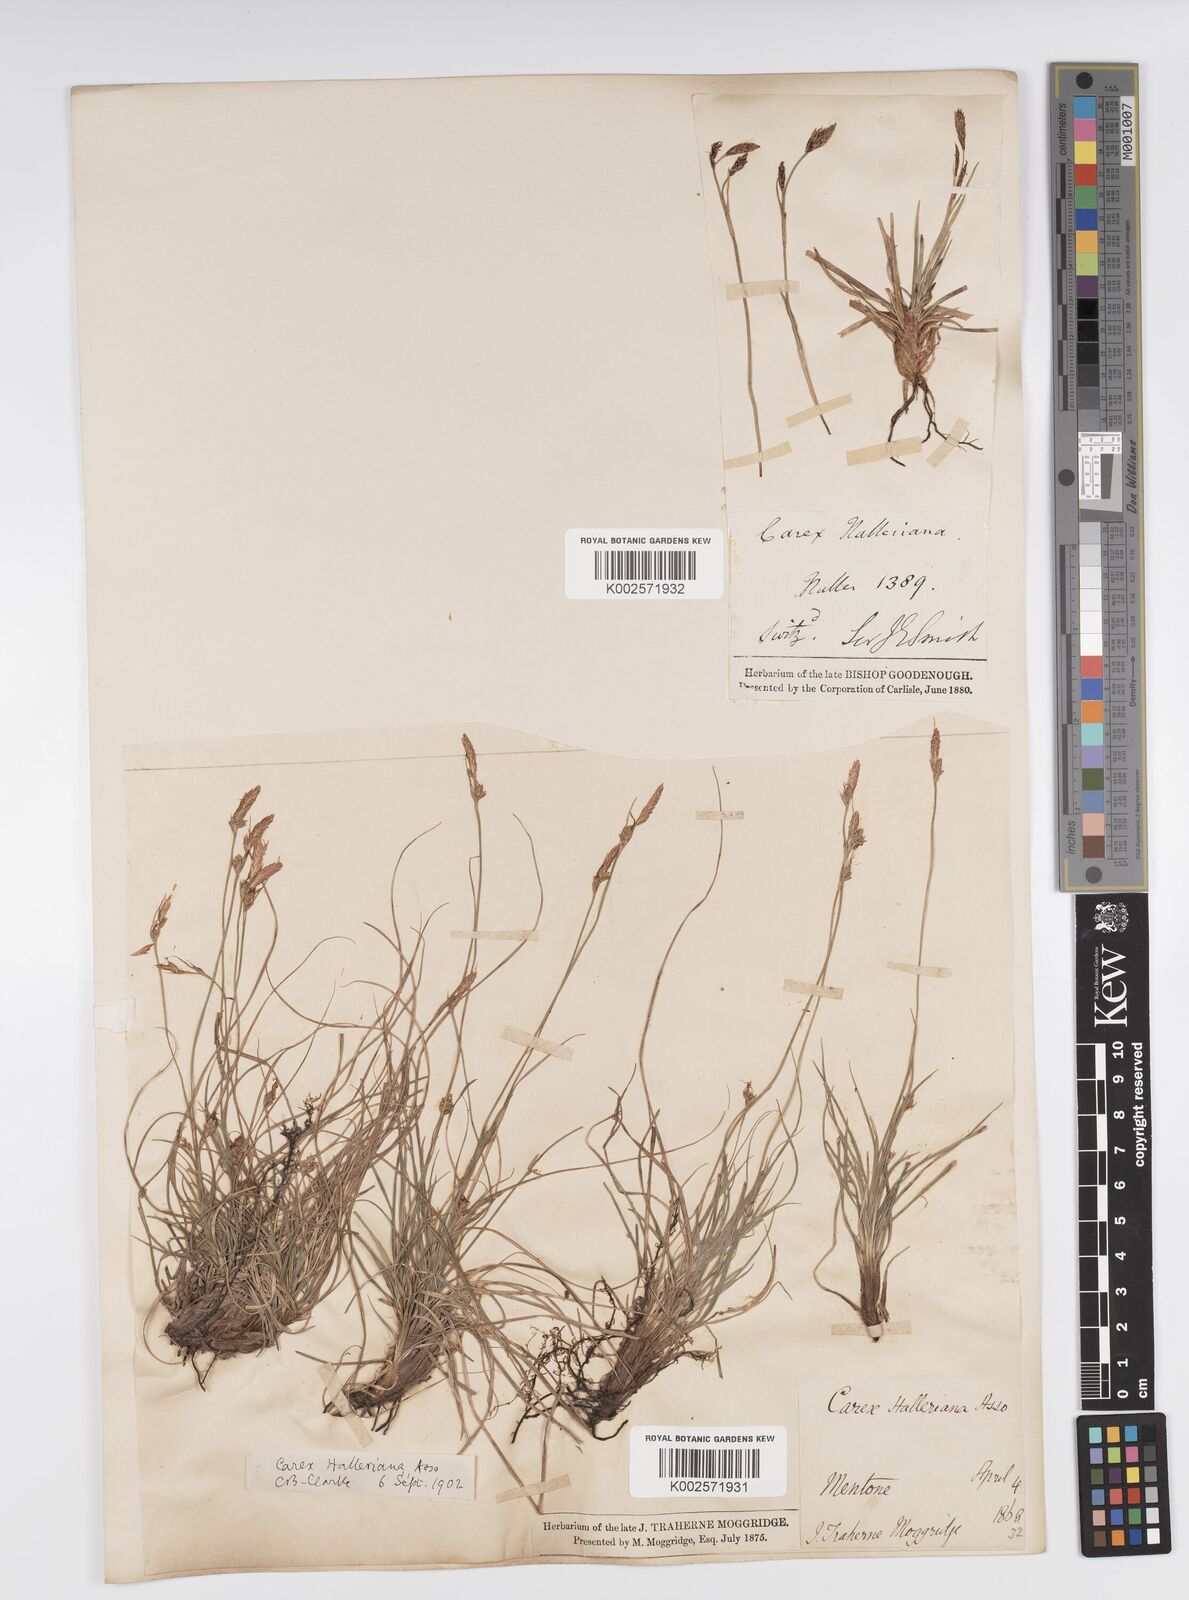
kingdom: Plantae
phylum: Tracheophyta
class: Liliopsida
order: Poales
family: Cyperaceae
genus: Carex
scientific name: Carex halleriana
